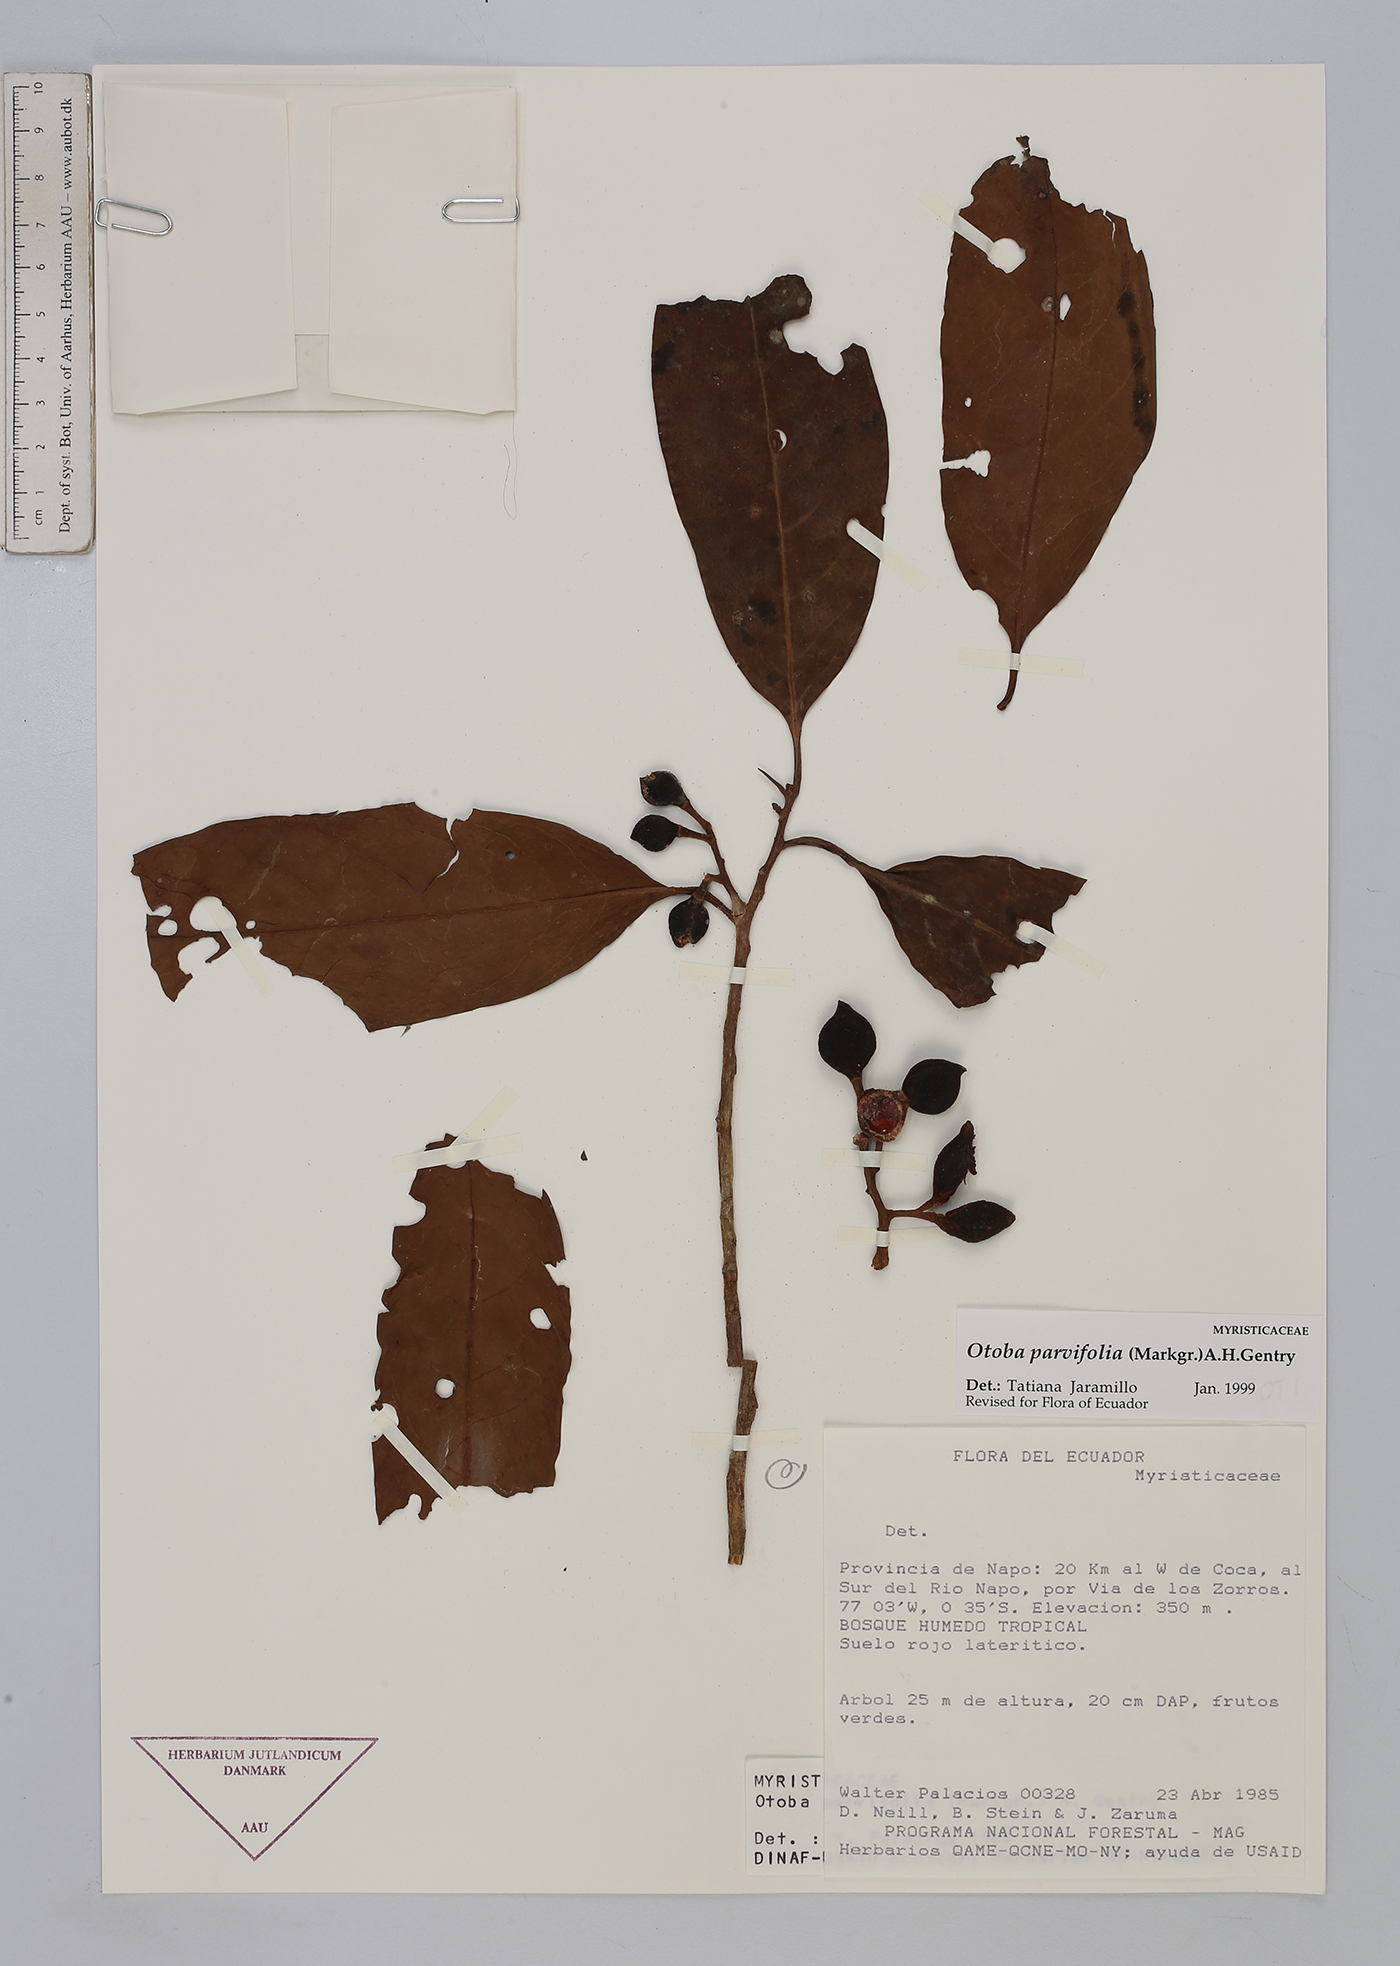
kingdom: Plantae
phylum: Tracheophyta
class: Magnoliopsida
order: Magnoliales
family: Myristicaceae
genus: Otoba
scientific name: Otoba parvifolia
